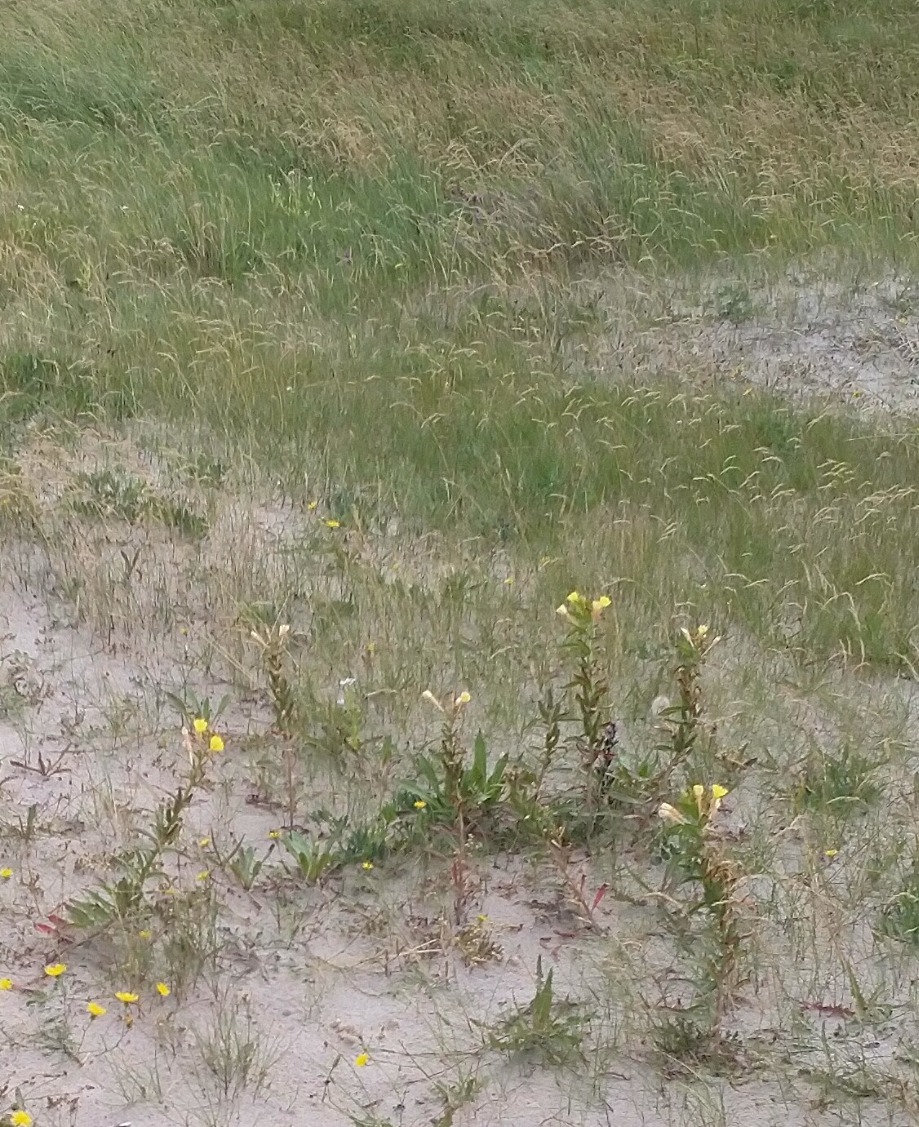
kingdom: Plantae
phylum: Tracheophyta
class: Magnoliopsida
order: Myrtales
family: Onagraceae
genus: Oenothera
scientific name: Oenothera ammophila
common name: Klit-natlys
